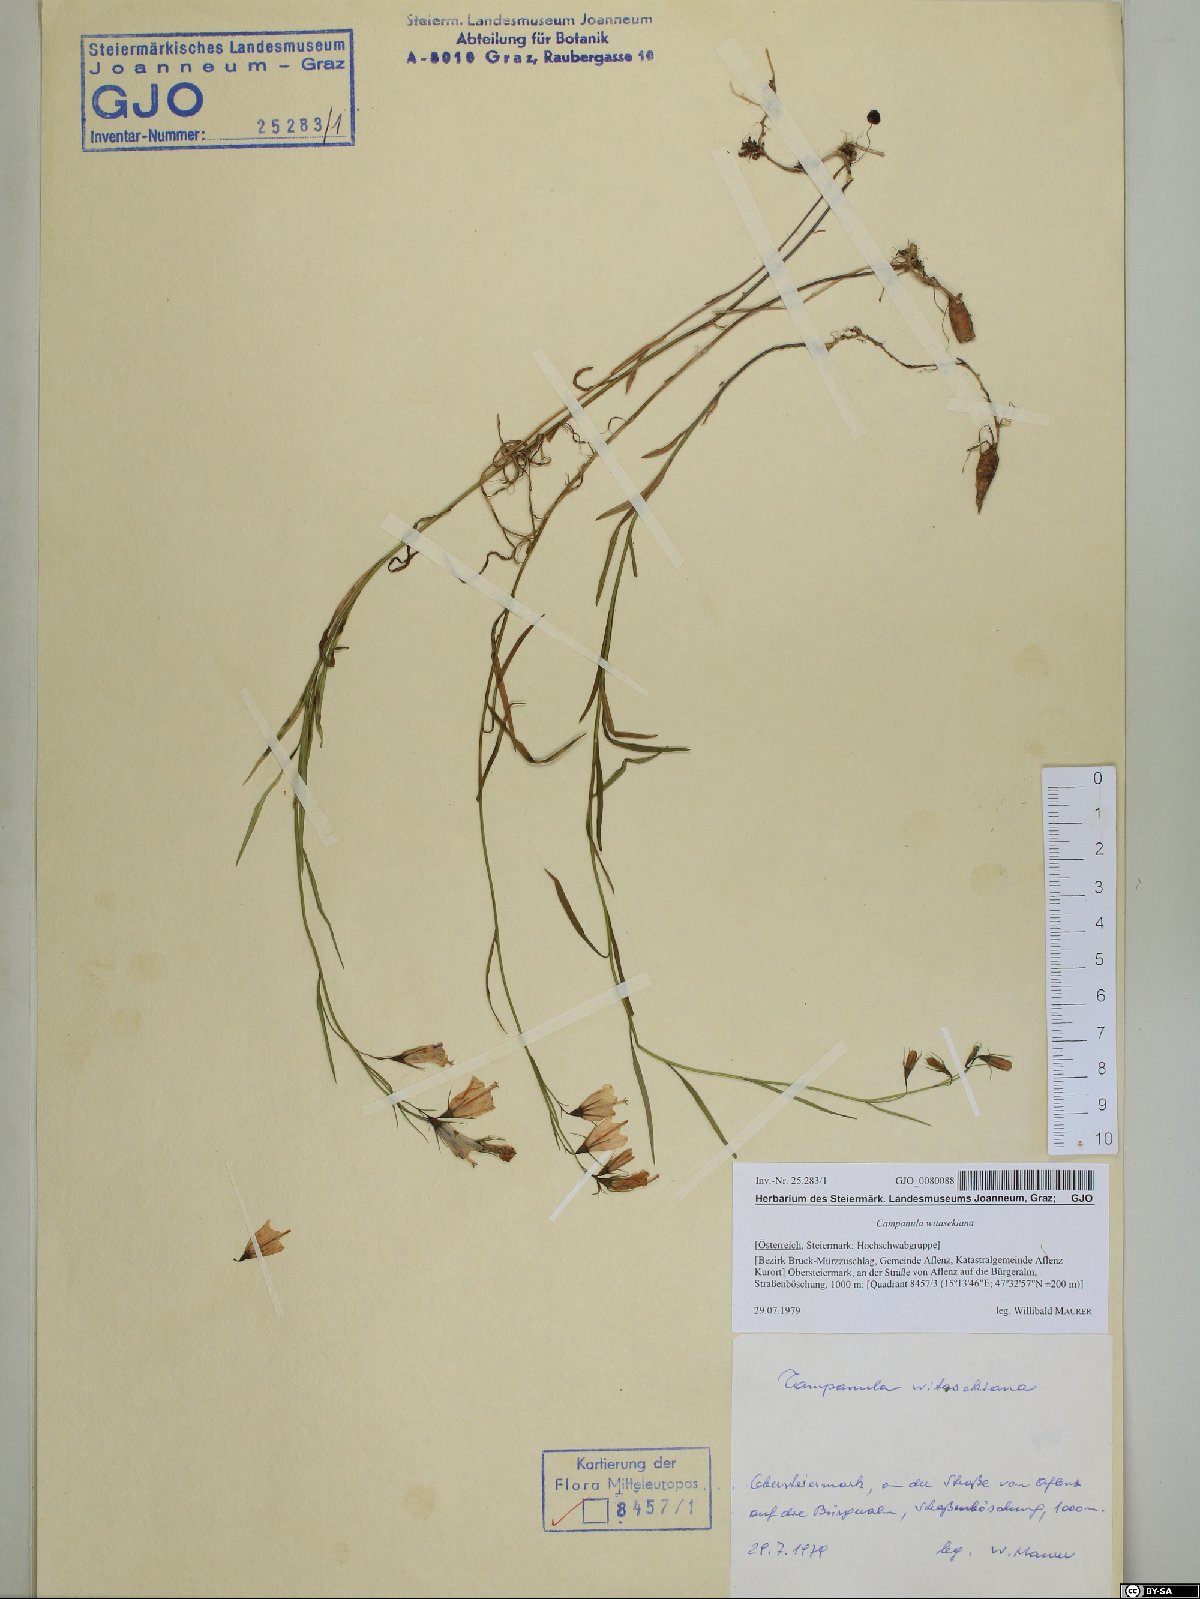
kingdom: Plantae
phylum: Tracheophyta
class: Magnoliopsida
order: Asterales
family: Campanulaceae
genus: Campanula
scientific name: Campanula witasekiana
